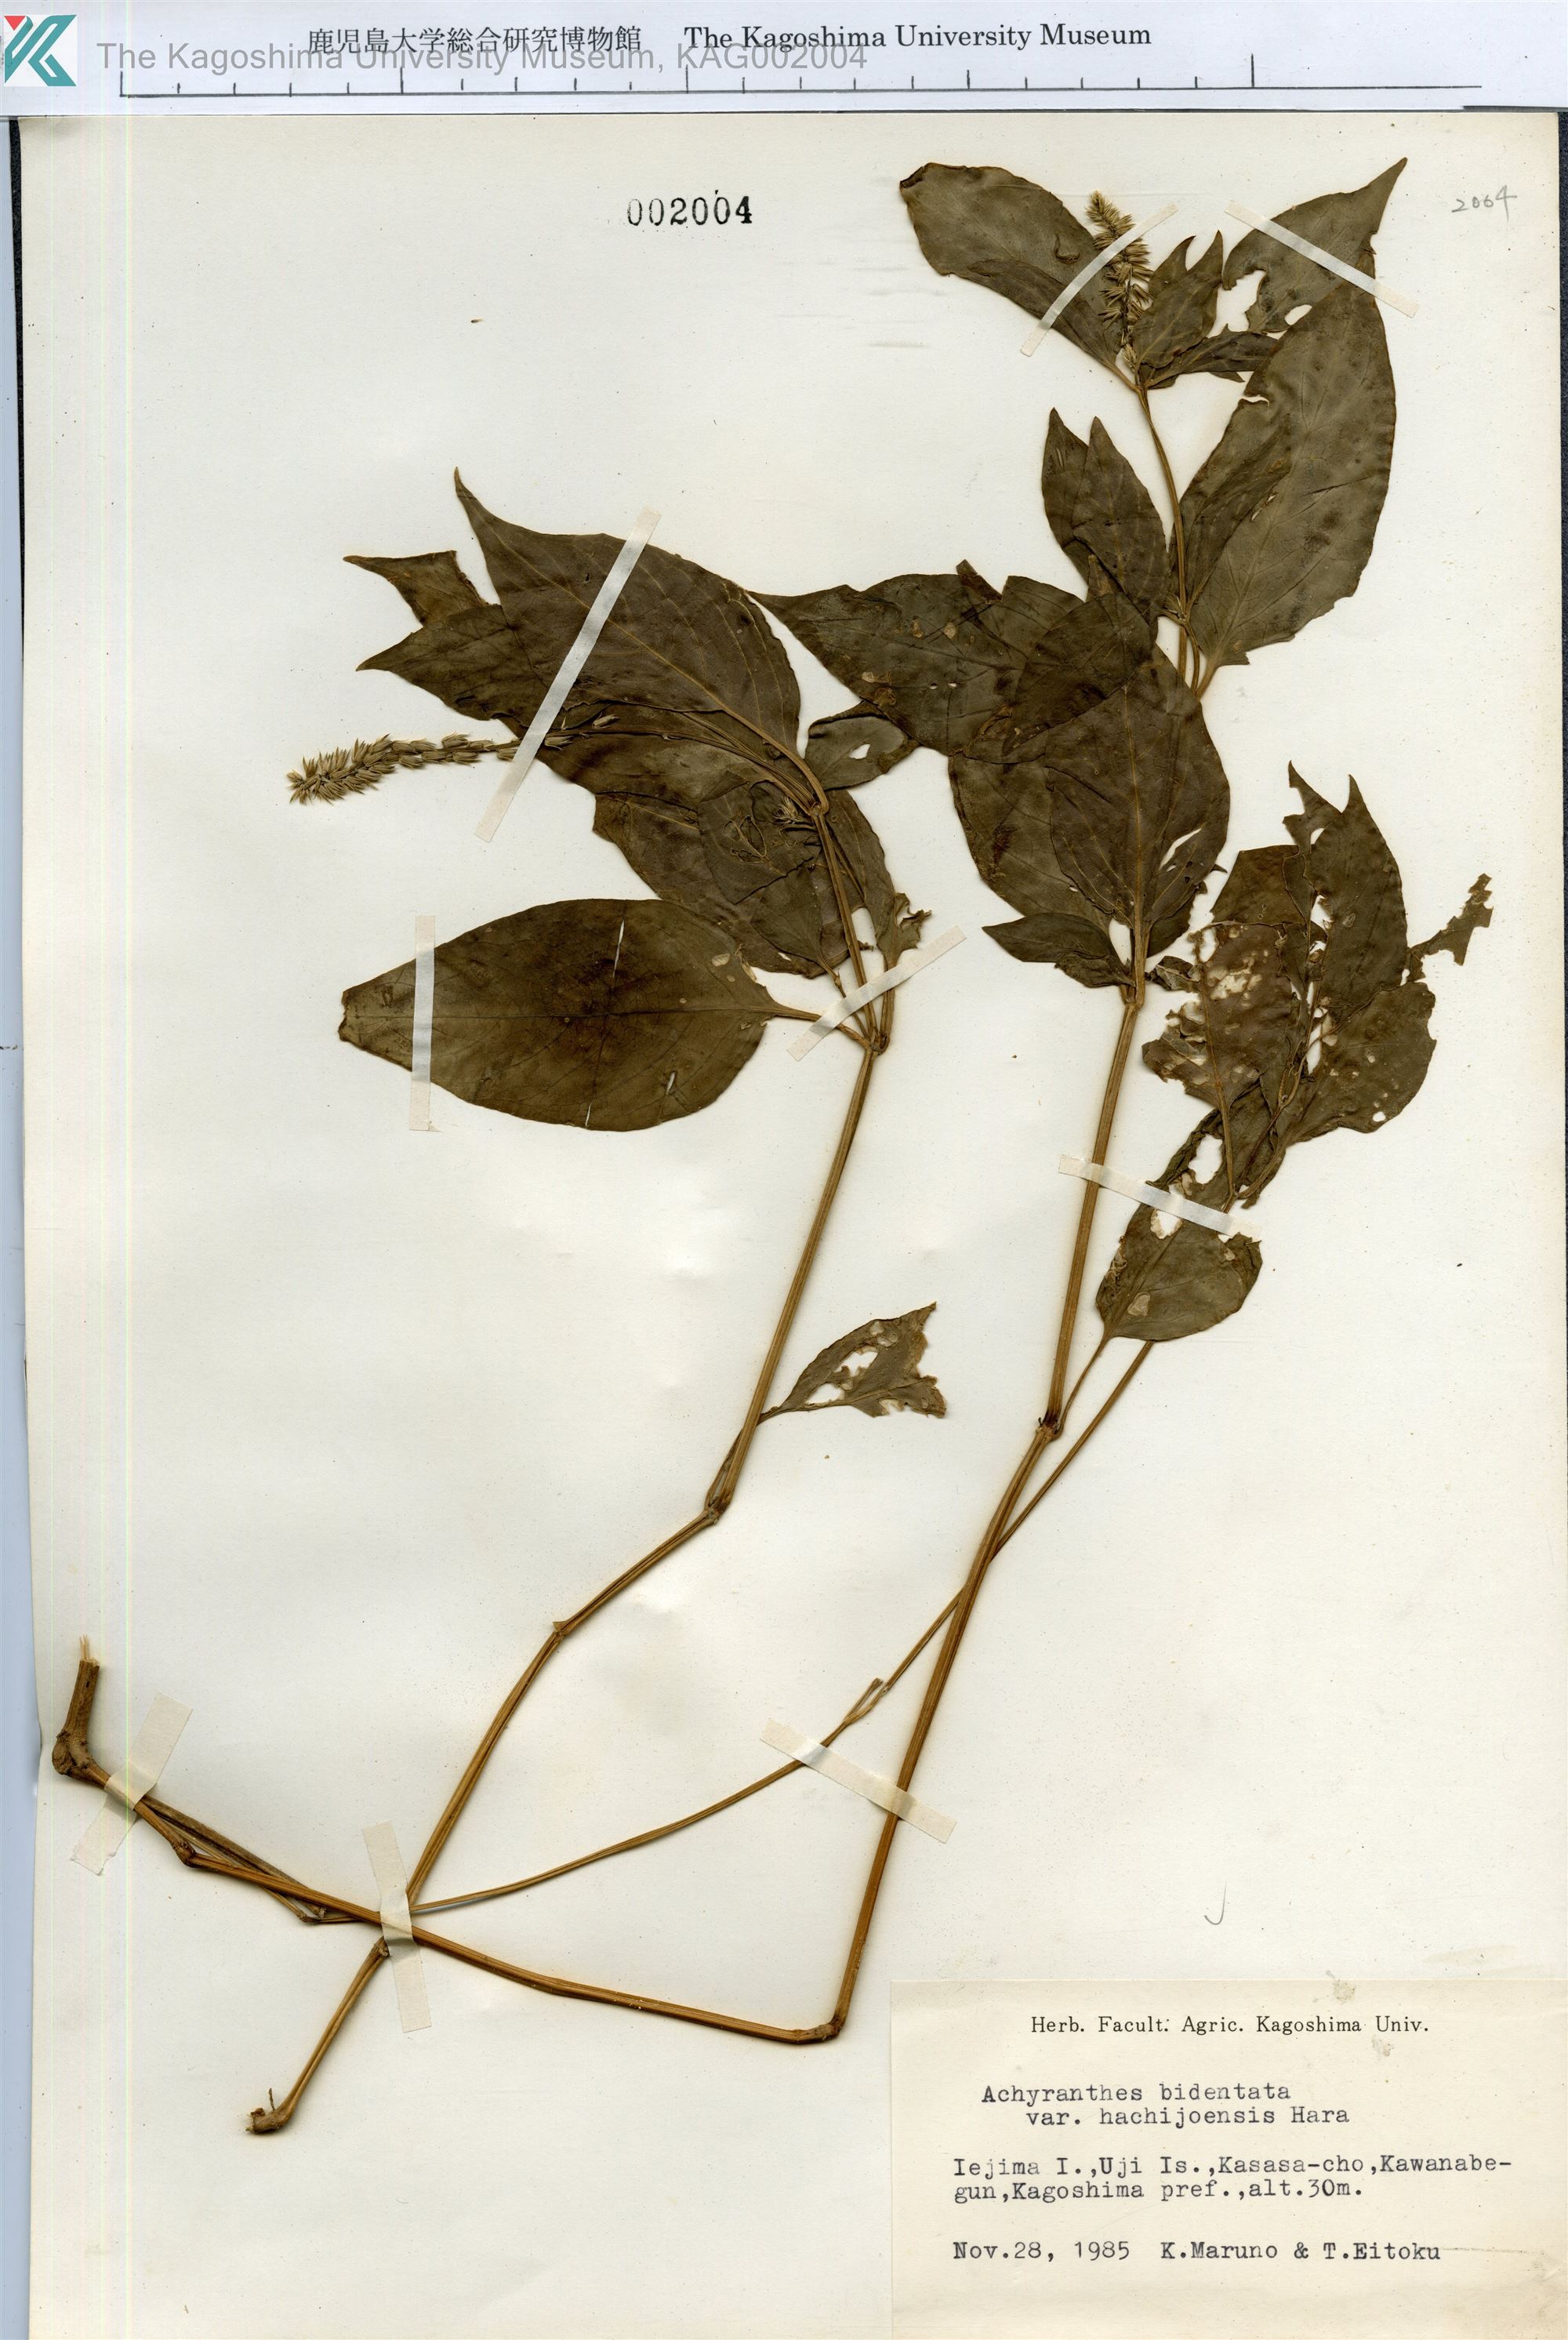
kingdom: Plantae
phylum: Tracheophyta
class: Magnoliopsida
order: Caryophyllales
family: Amaranthaceae
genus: Achyranthes
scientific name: Achyranthes bidentata
